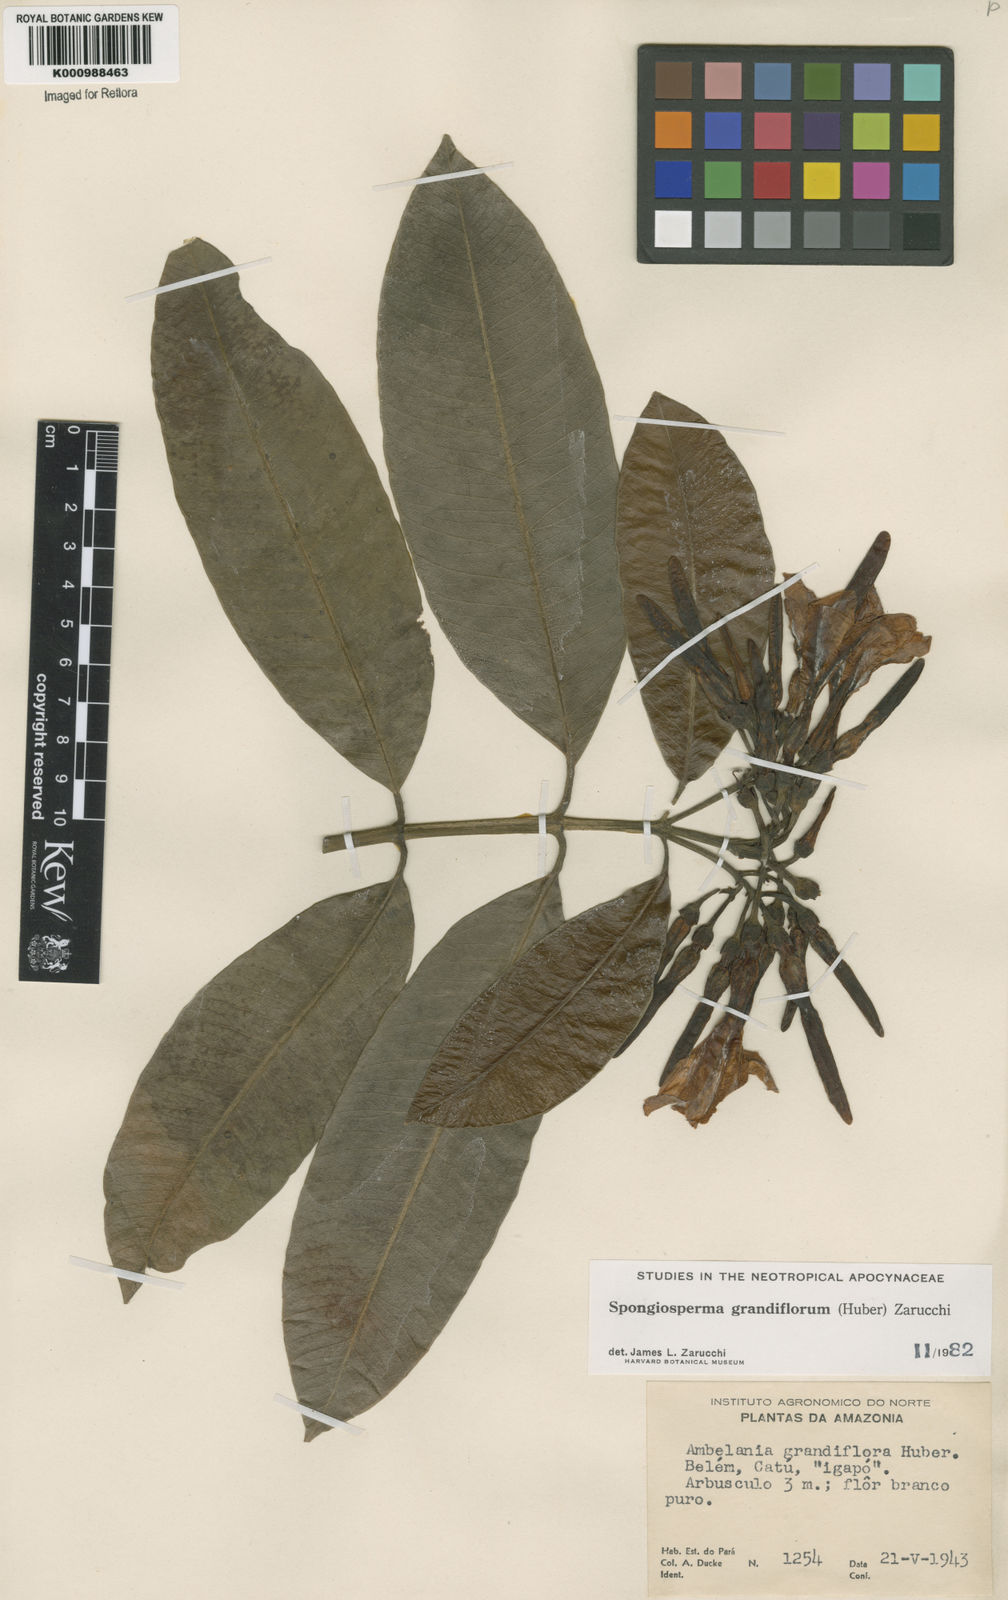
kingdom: Plantae
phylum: Tracheophyta
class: Magnoliopsida
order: Gentianales
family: Apocynaceae
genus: Aspidosperma
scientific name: Aspidosperma
